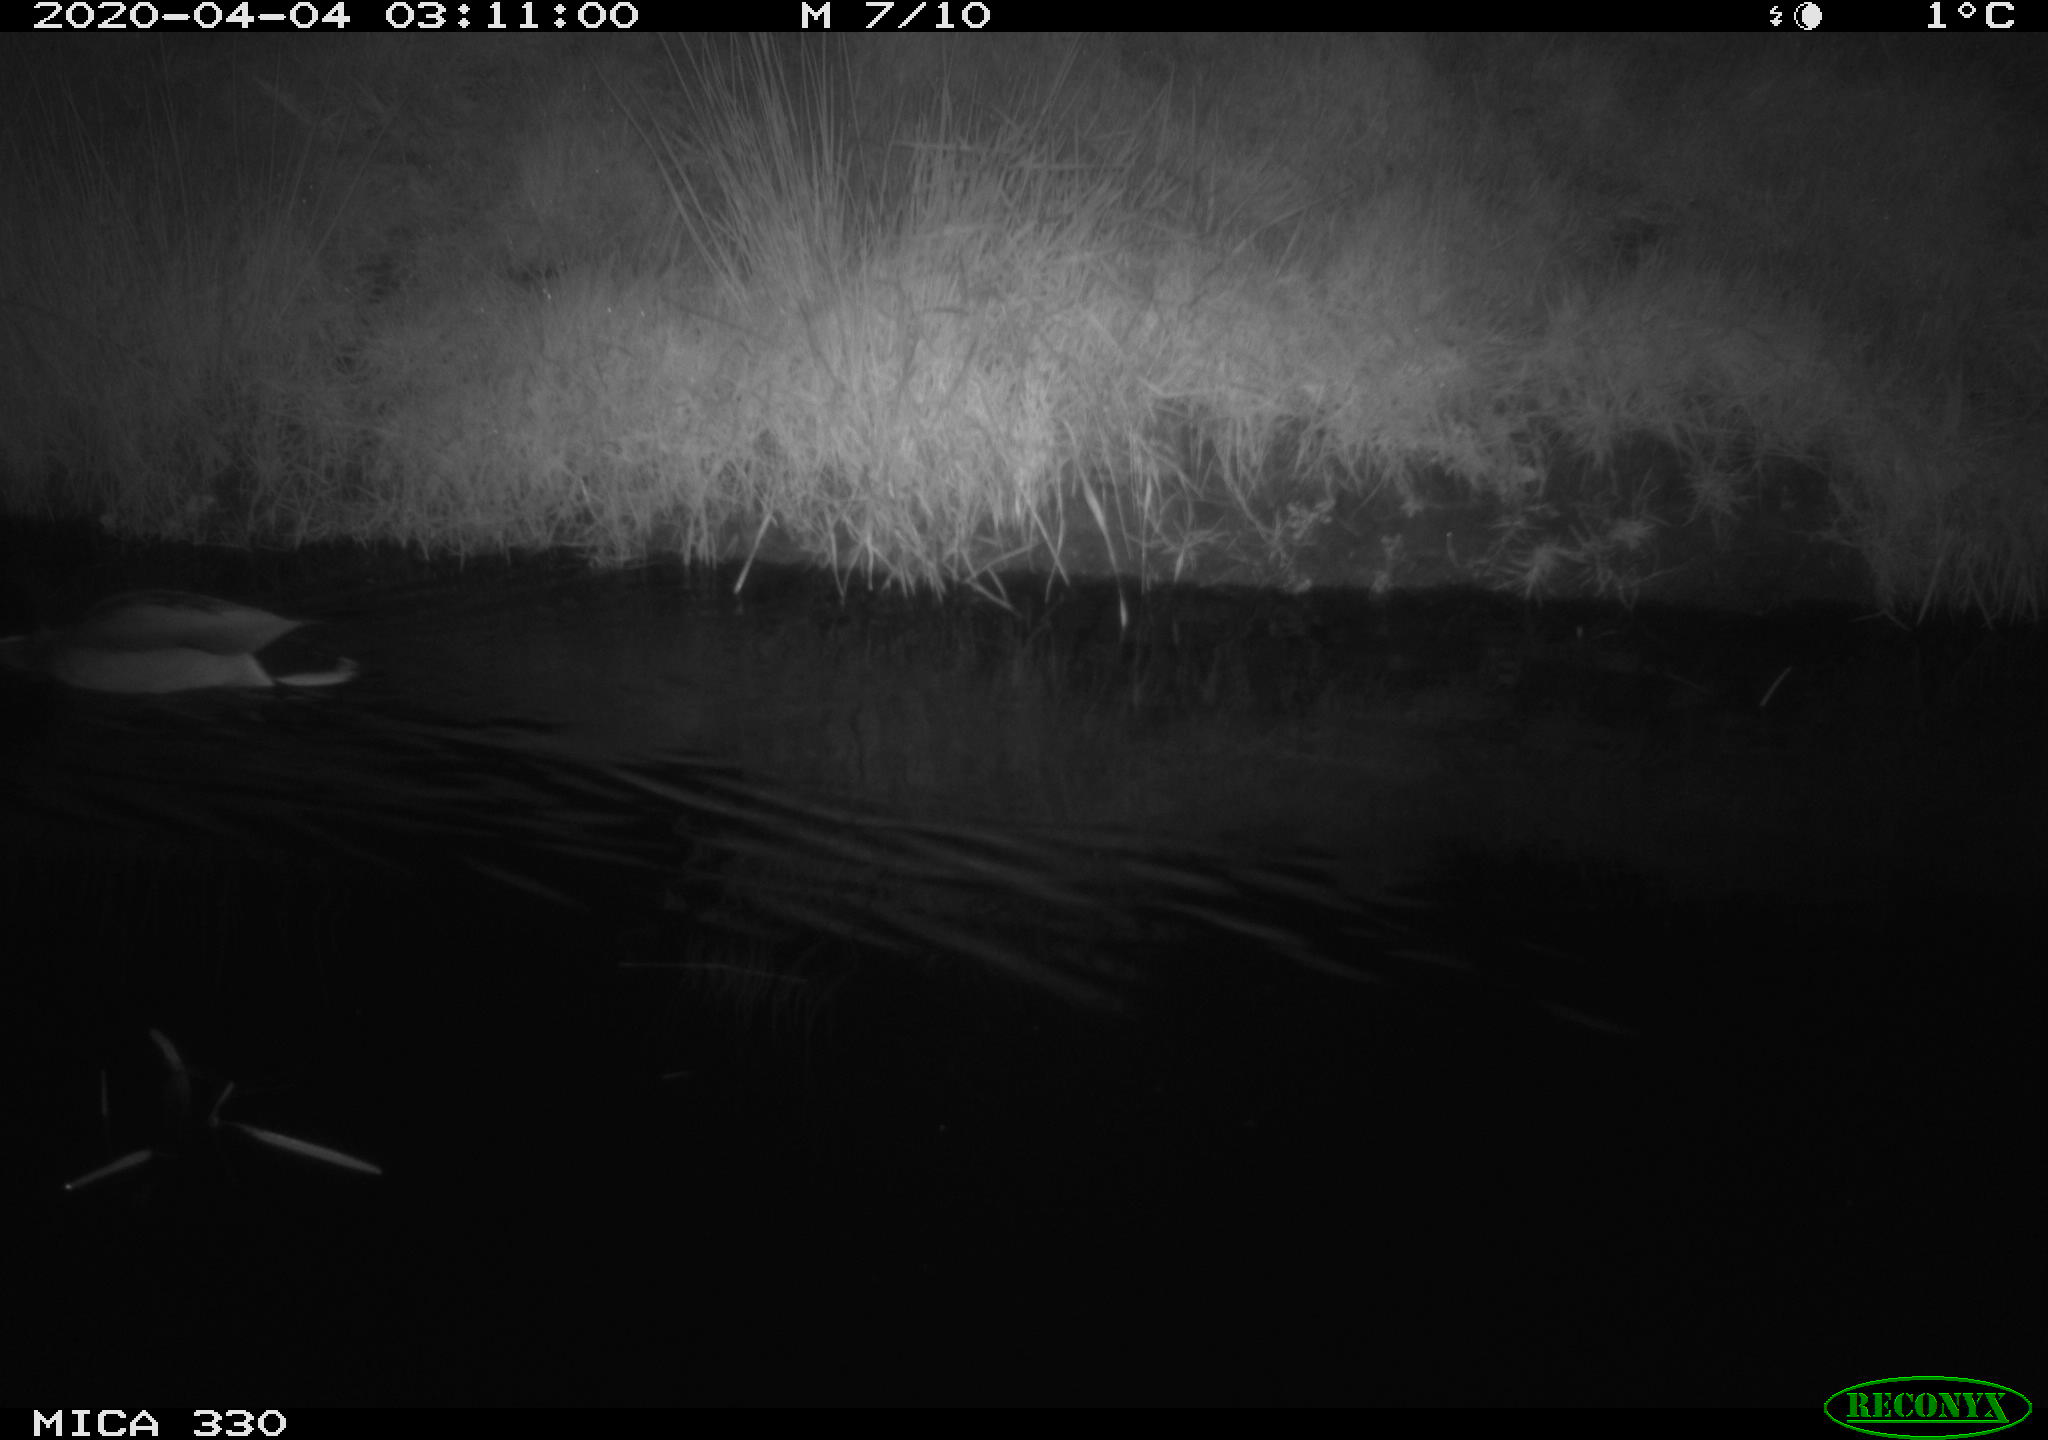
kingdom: Animalia
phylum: Chordata
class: Aves
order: Anseriformes
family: Anatidae
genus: Anas
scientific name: Anas platyrhynchos
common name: Mallard
